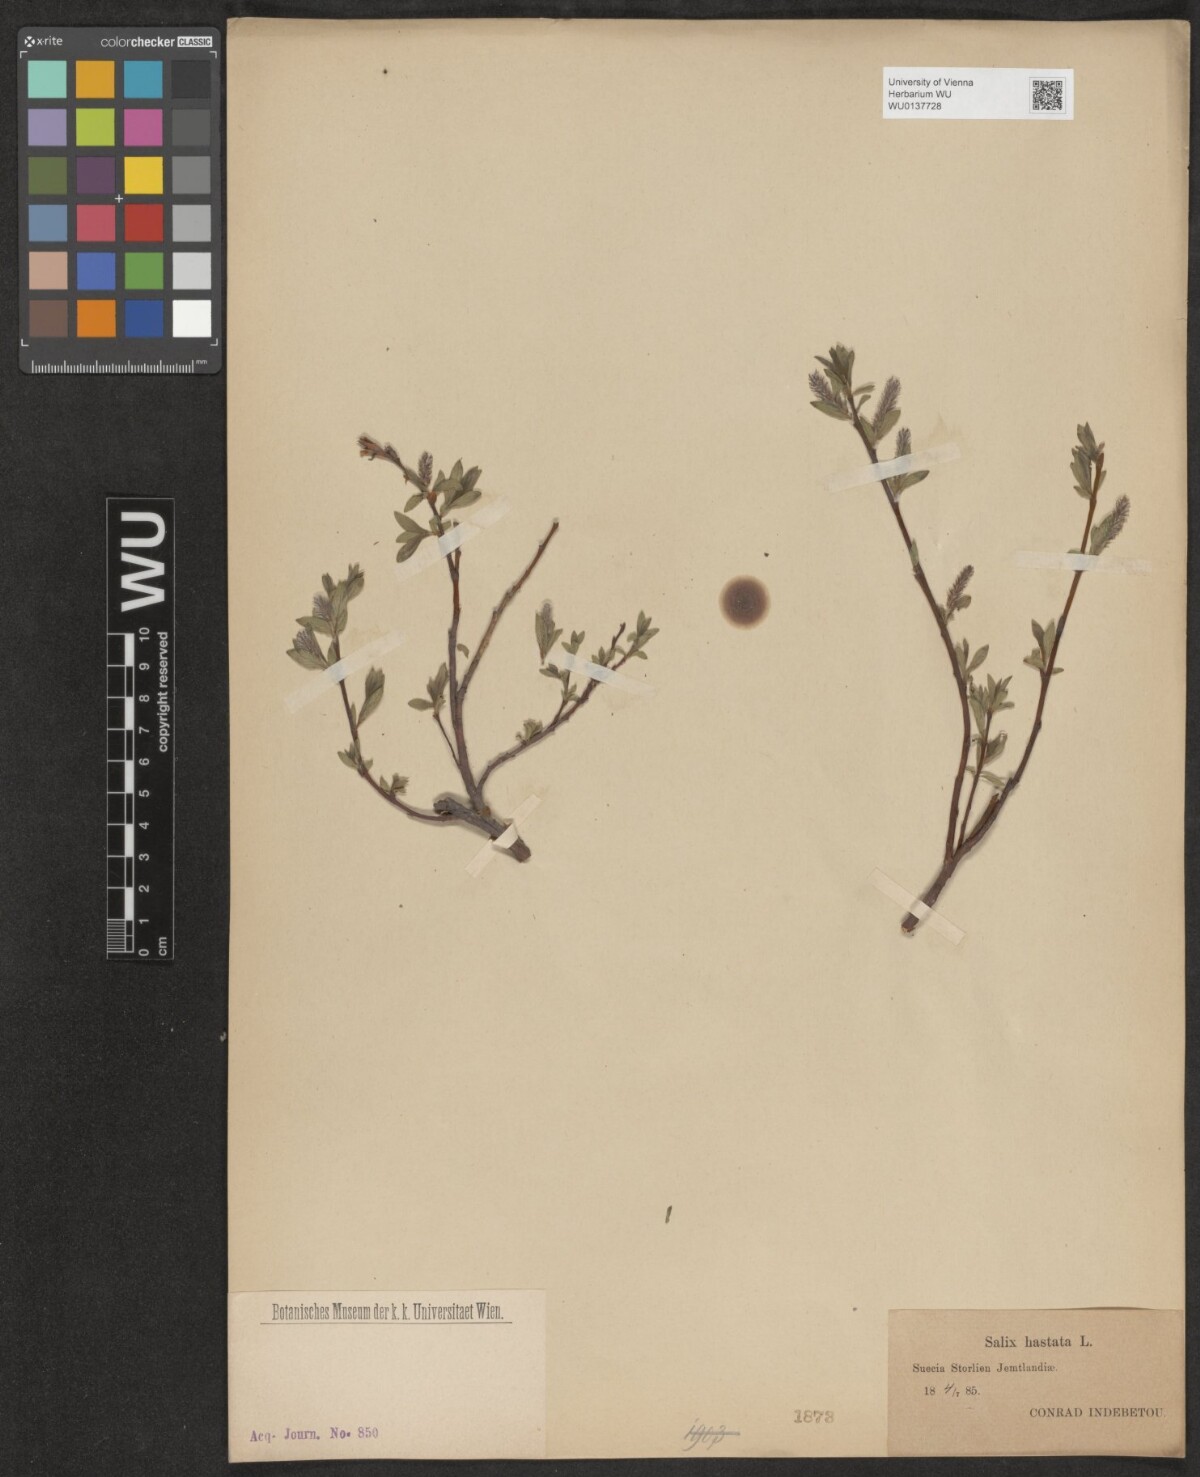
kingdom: Plantae
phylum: Tracheophyta
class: Magnoliopsida
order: Malpighiales
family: Salicaceae
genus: Salix
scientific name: Salix hastata
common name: Halberd willow
